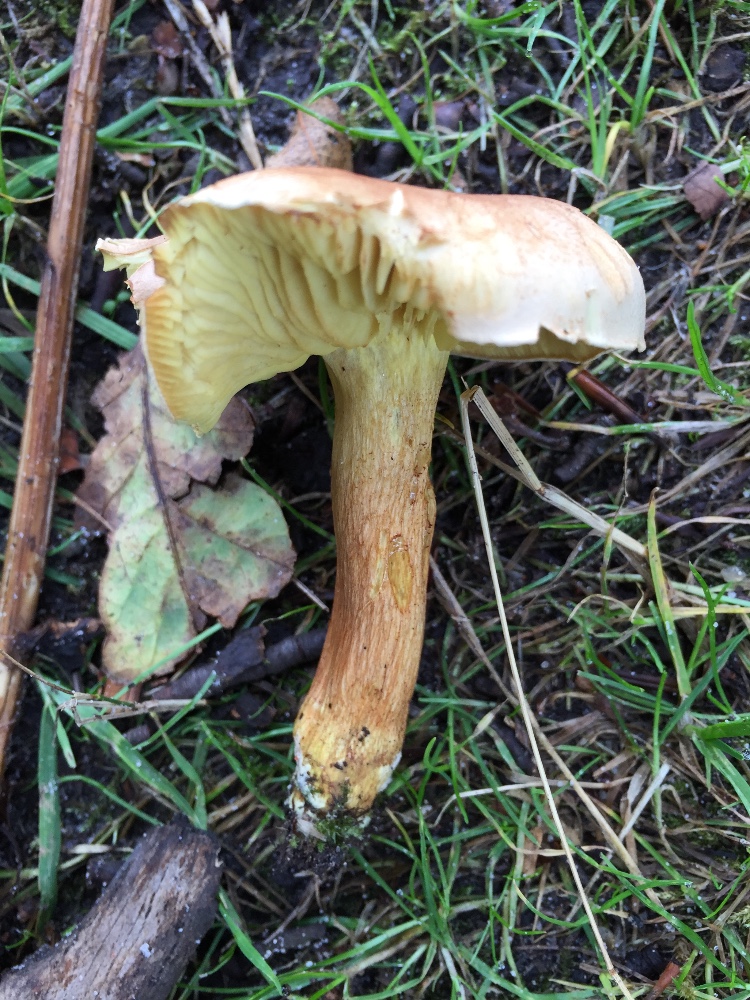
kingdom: Fungi
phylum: Basidiomycota
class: Agaricomycetes
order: Agaricales
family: Tricholomataceae
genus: Tricholoma
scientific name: Tricholoma sulphureum
